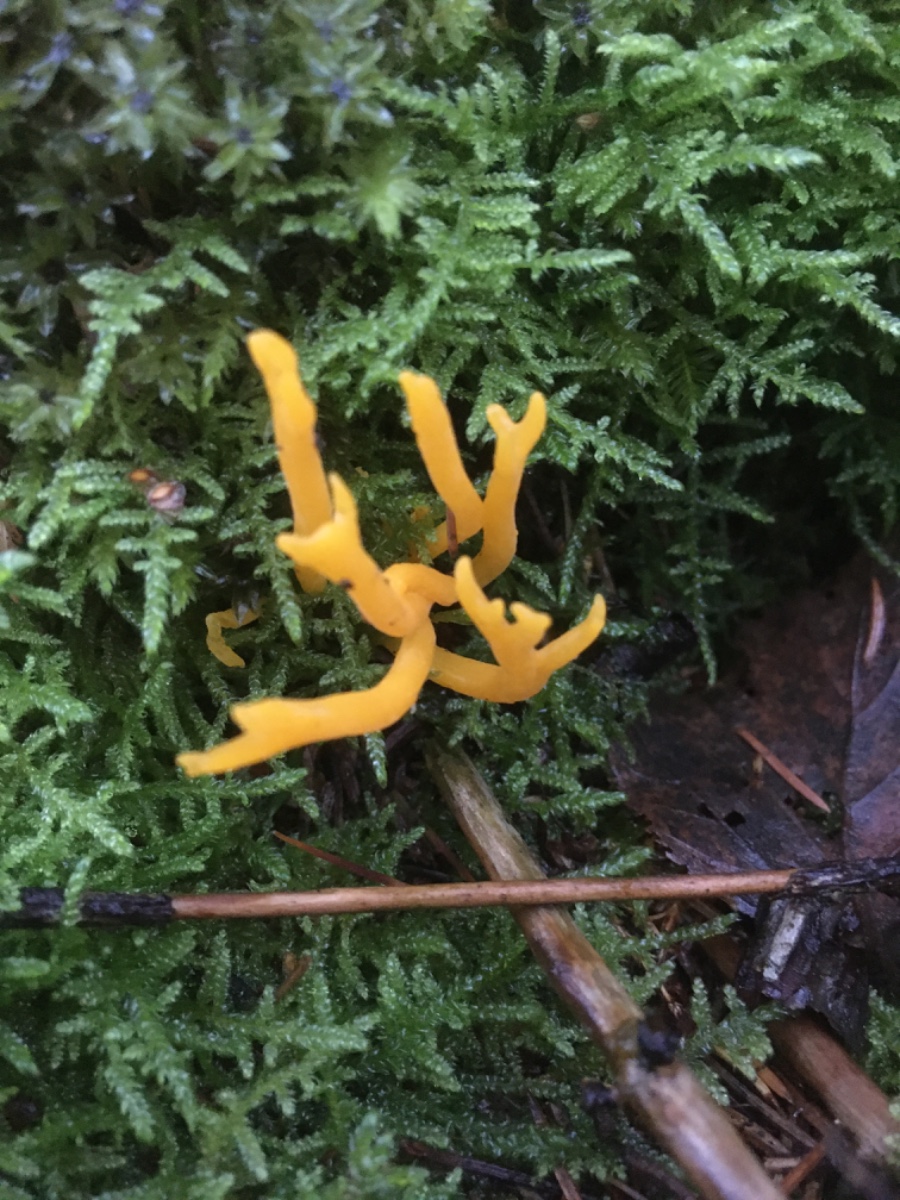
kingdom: Fungi
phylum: Basidiomycota
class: Dacrymycetes
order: Dacrymycetales
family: Dacrymycetaceae
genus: Calocera
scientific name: Calocera viscosa
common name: almindelig guldgaffel
